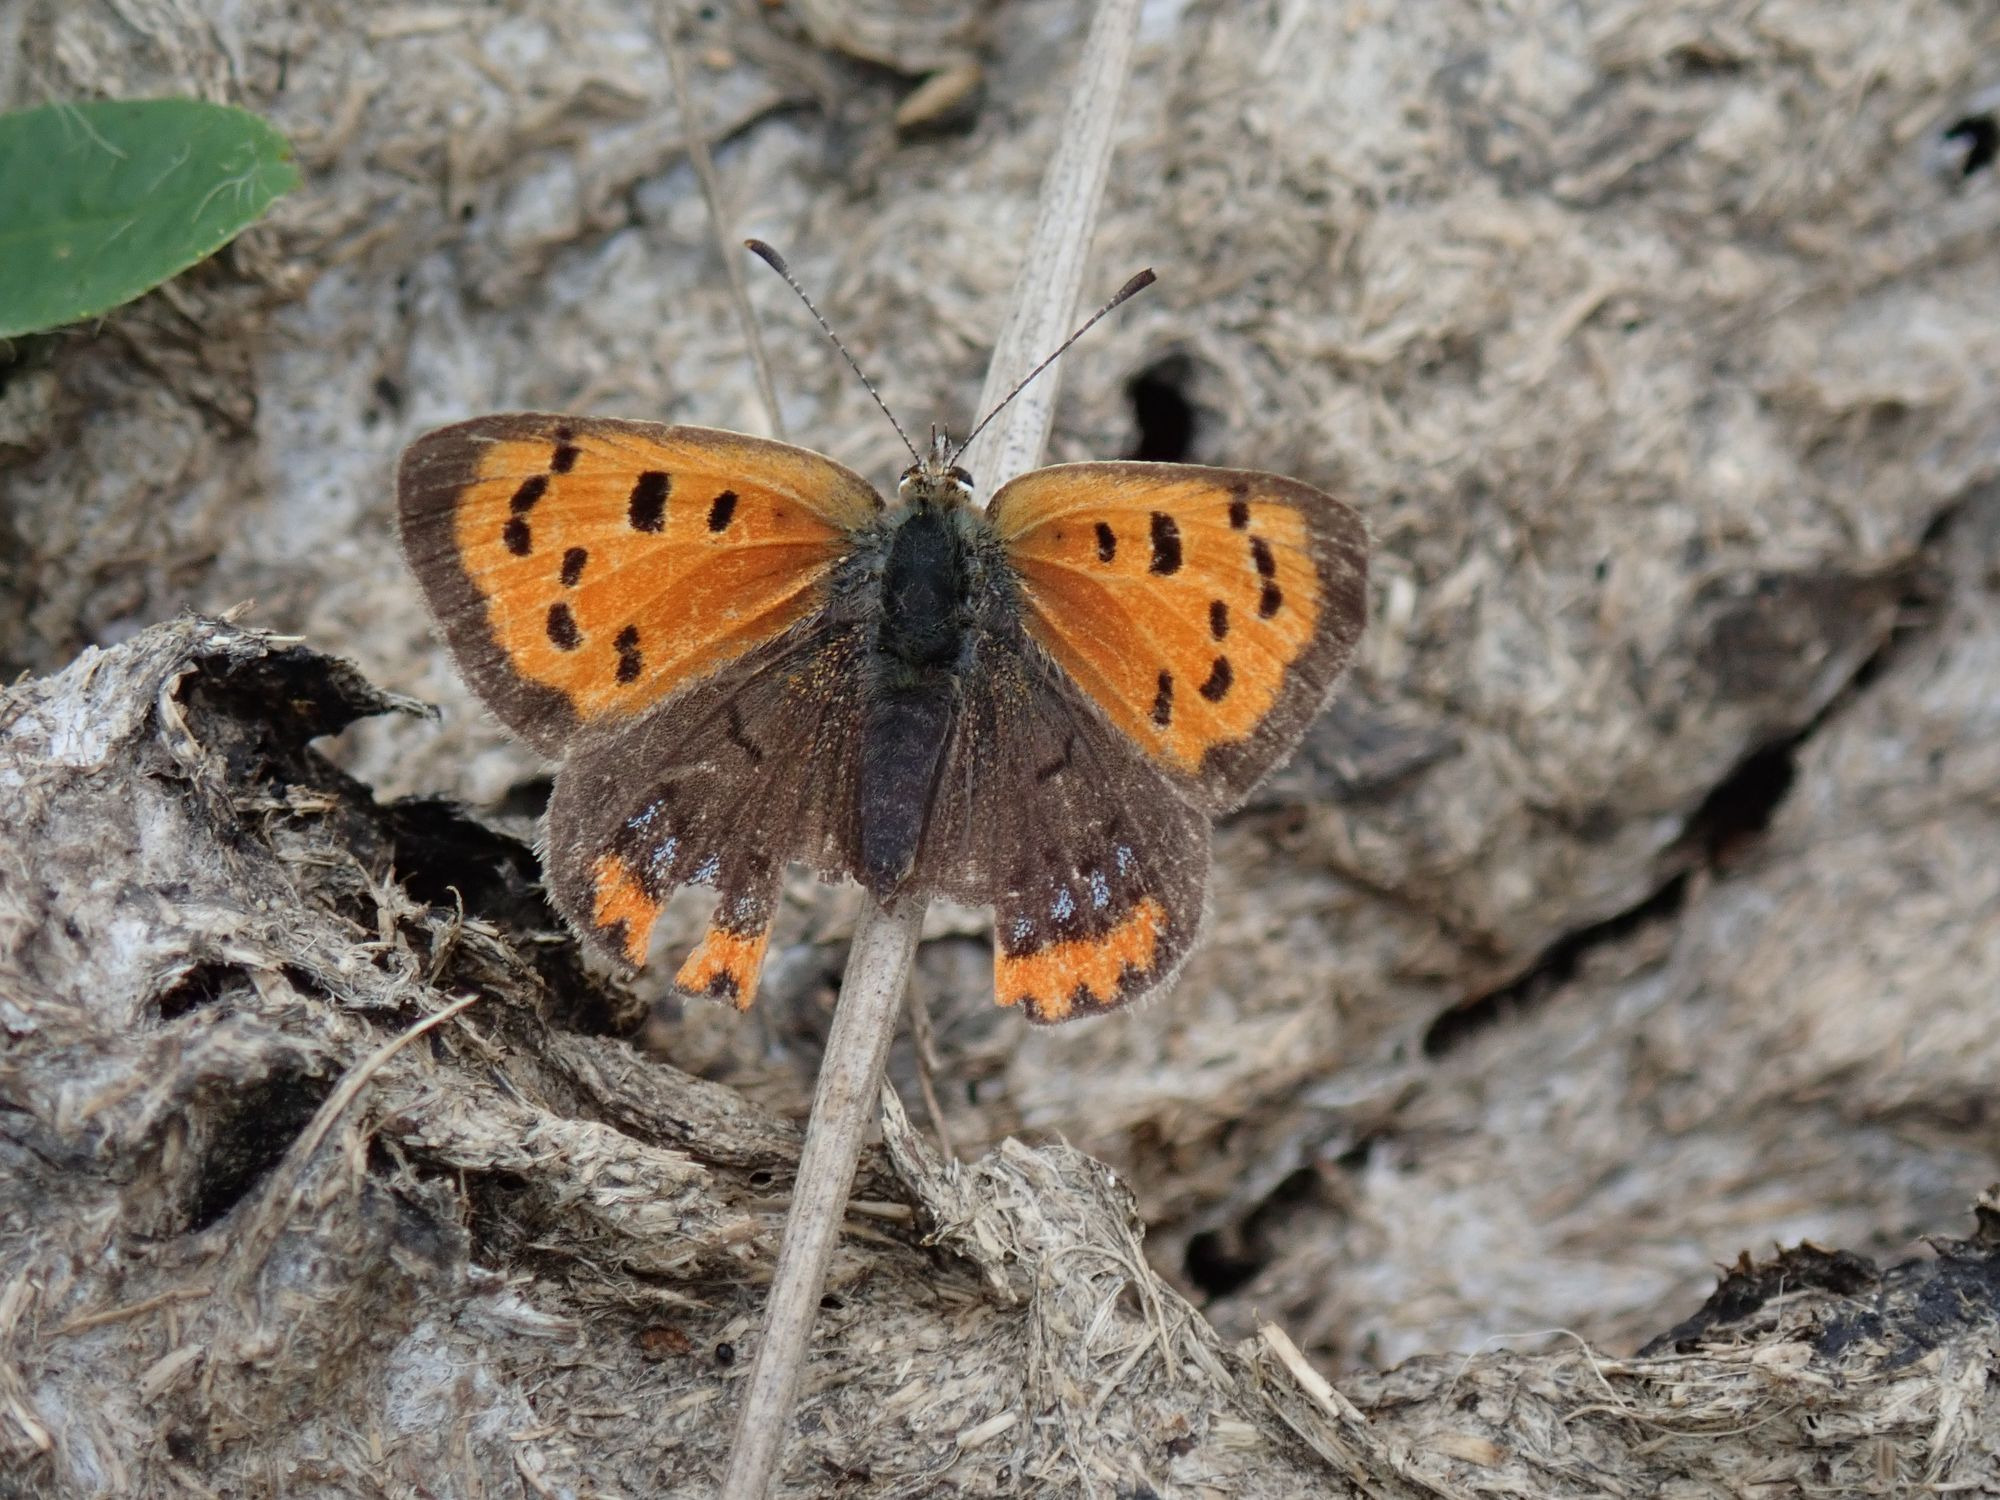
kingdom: Animalia
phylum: Arthropoda
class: Insecta
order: Lepidoptera
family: Lycaenidae
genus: Lycaena
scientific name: Lycaena phlaeas
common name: Lille ildfugl
